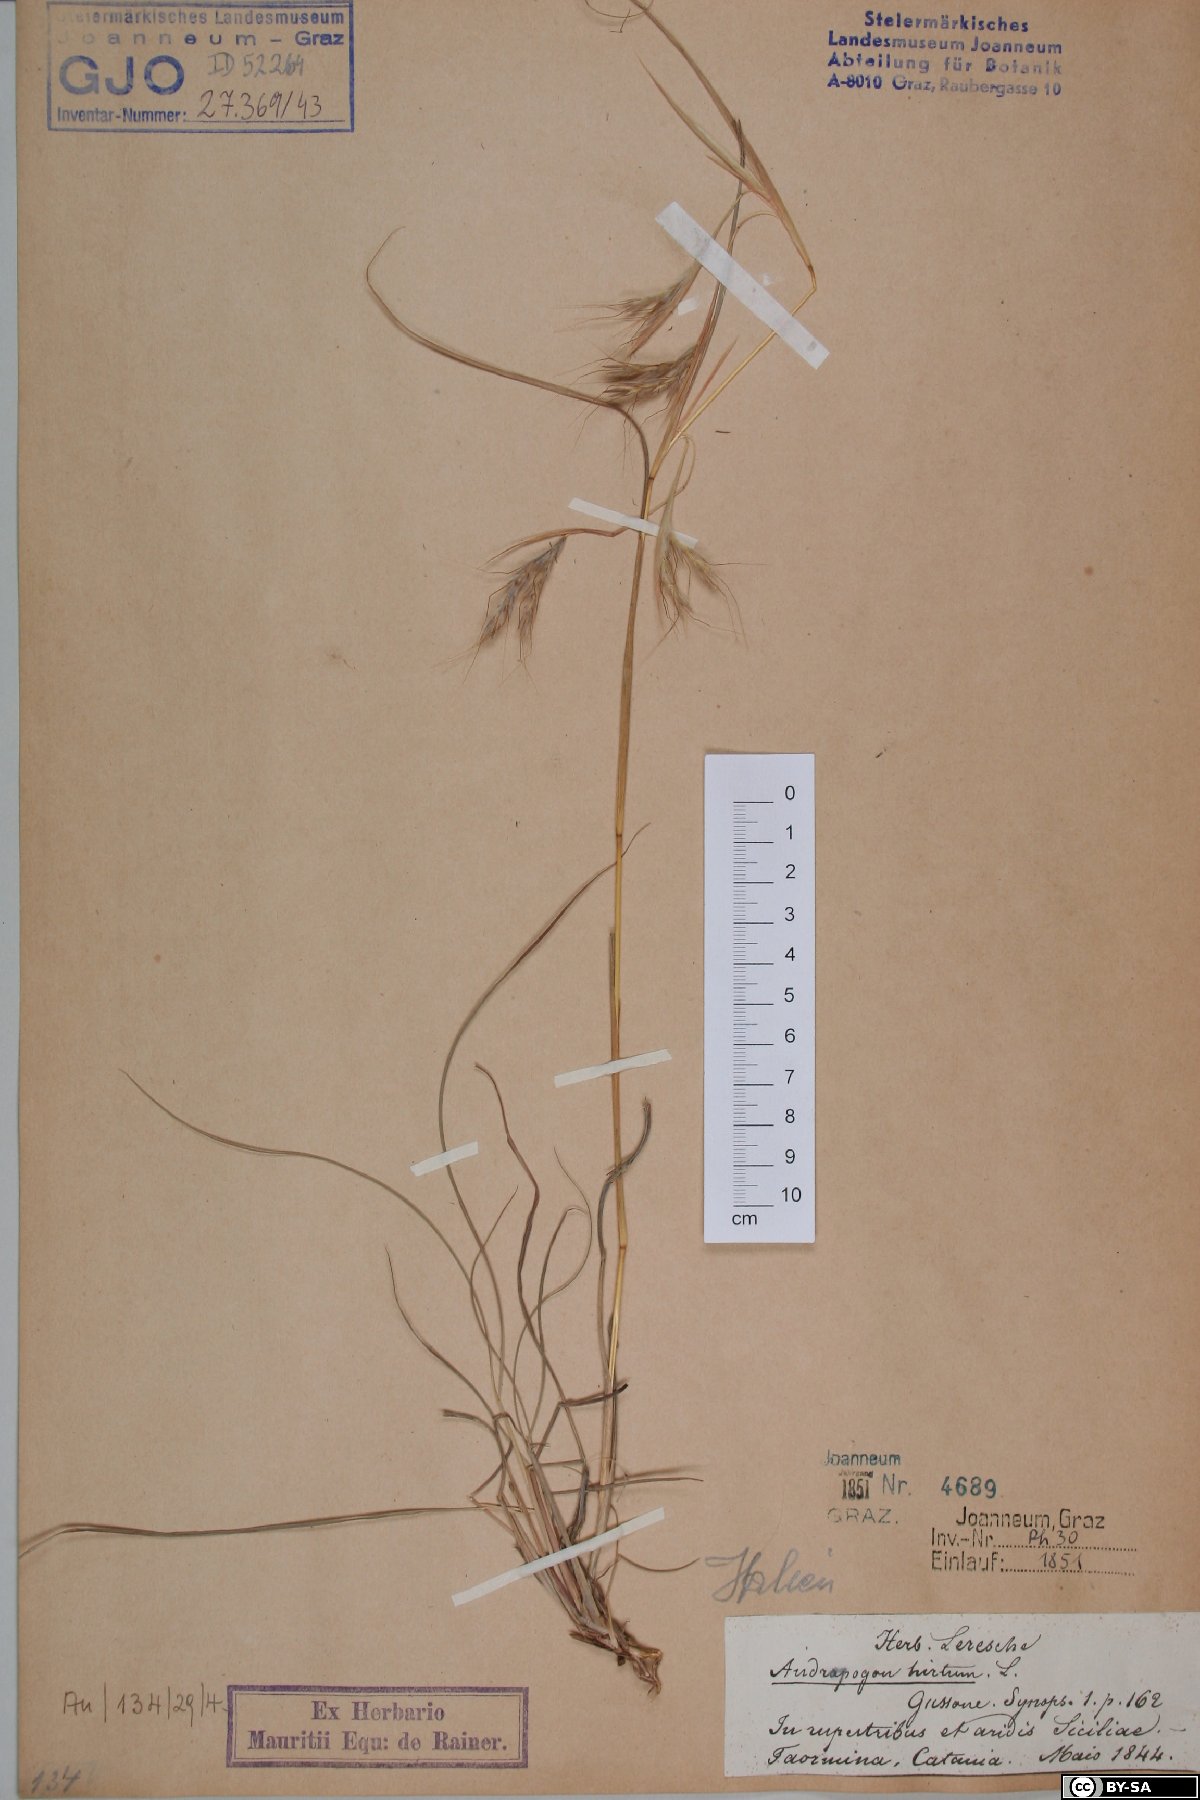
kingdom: Plantae
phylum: Tracheophyta
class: Liliopsida
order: Poales
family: Poaceae
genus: Hyparrhenia
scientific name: Hyparrhenia hirta
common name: Thatching grass
